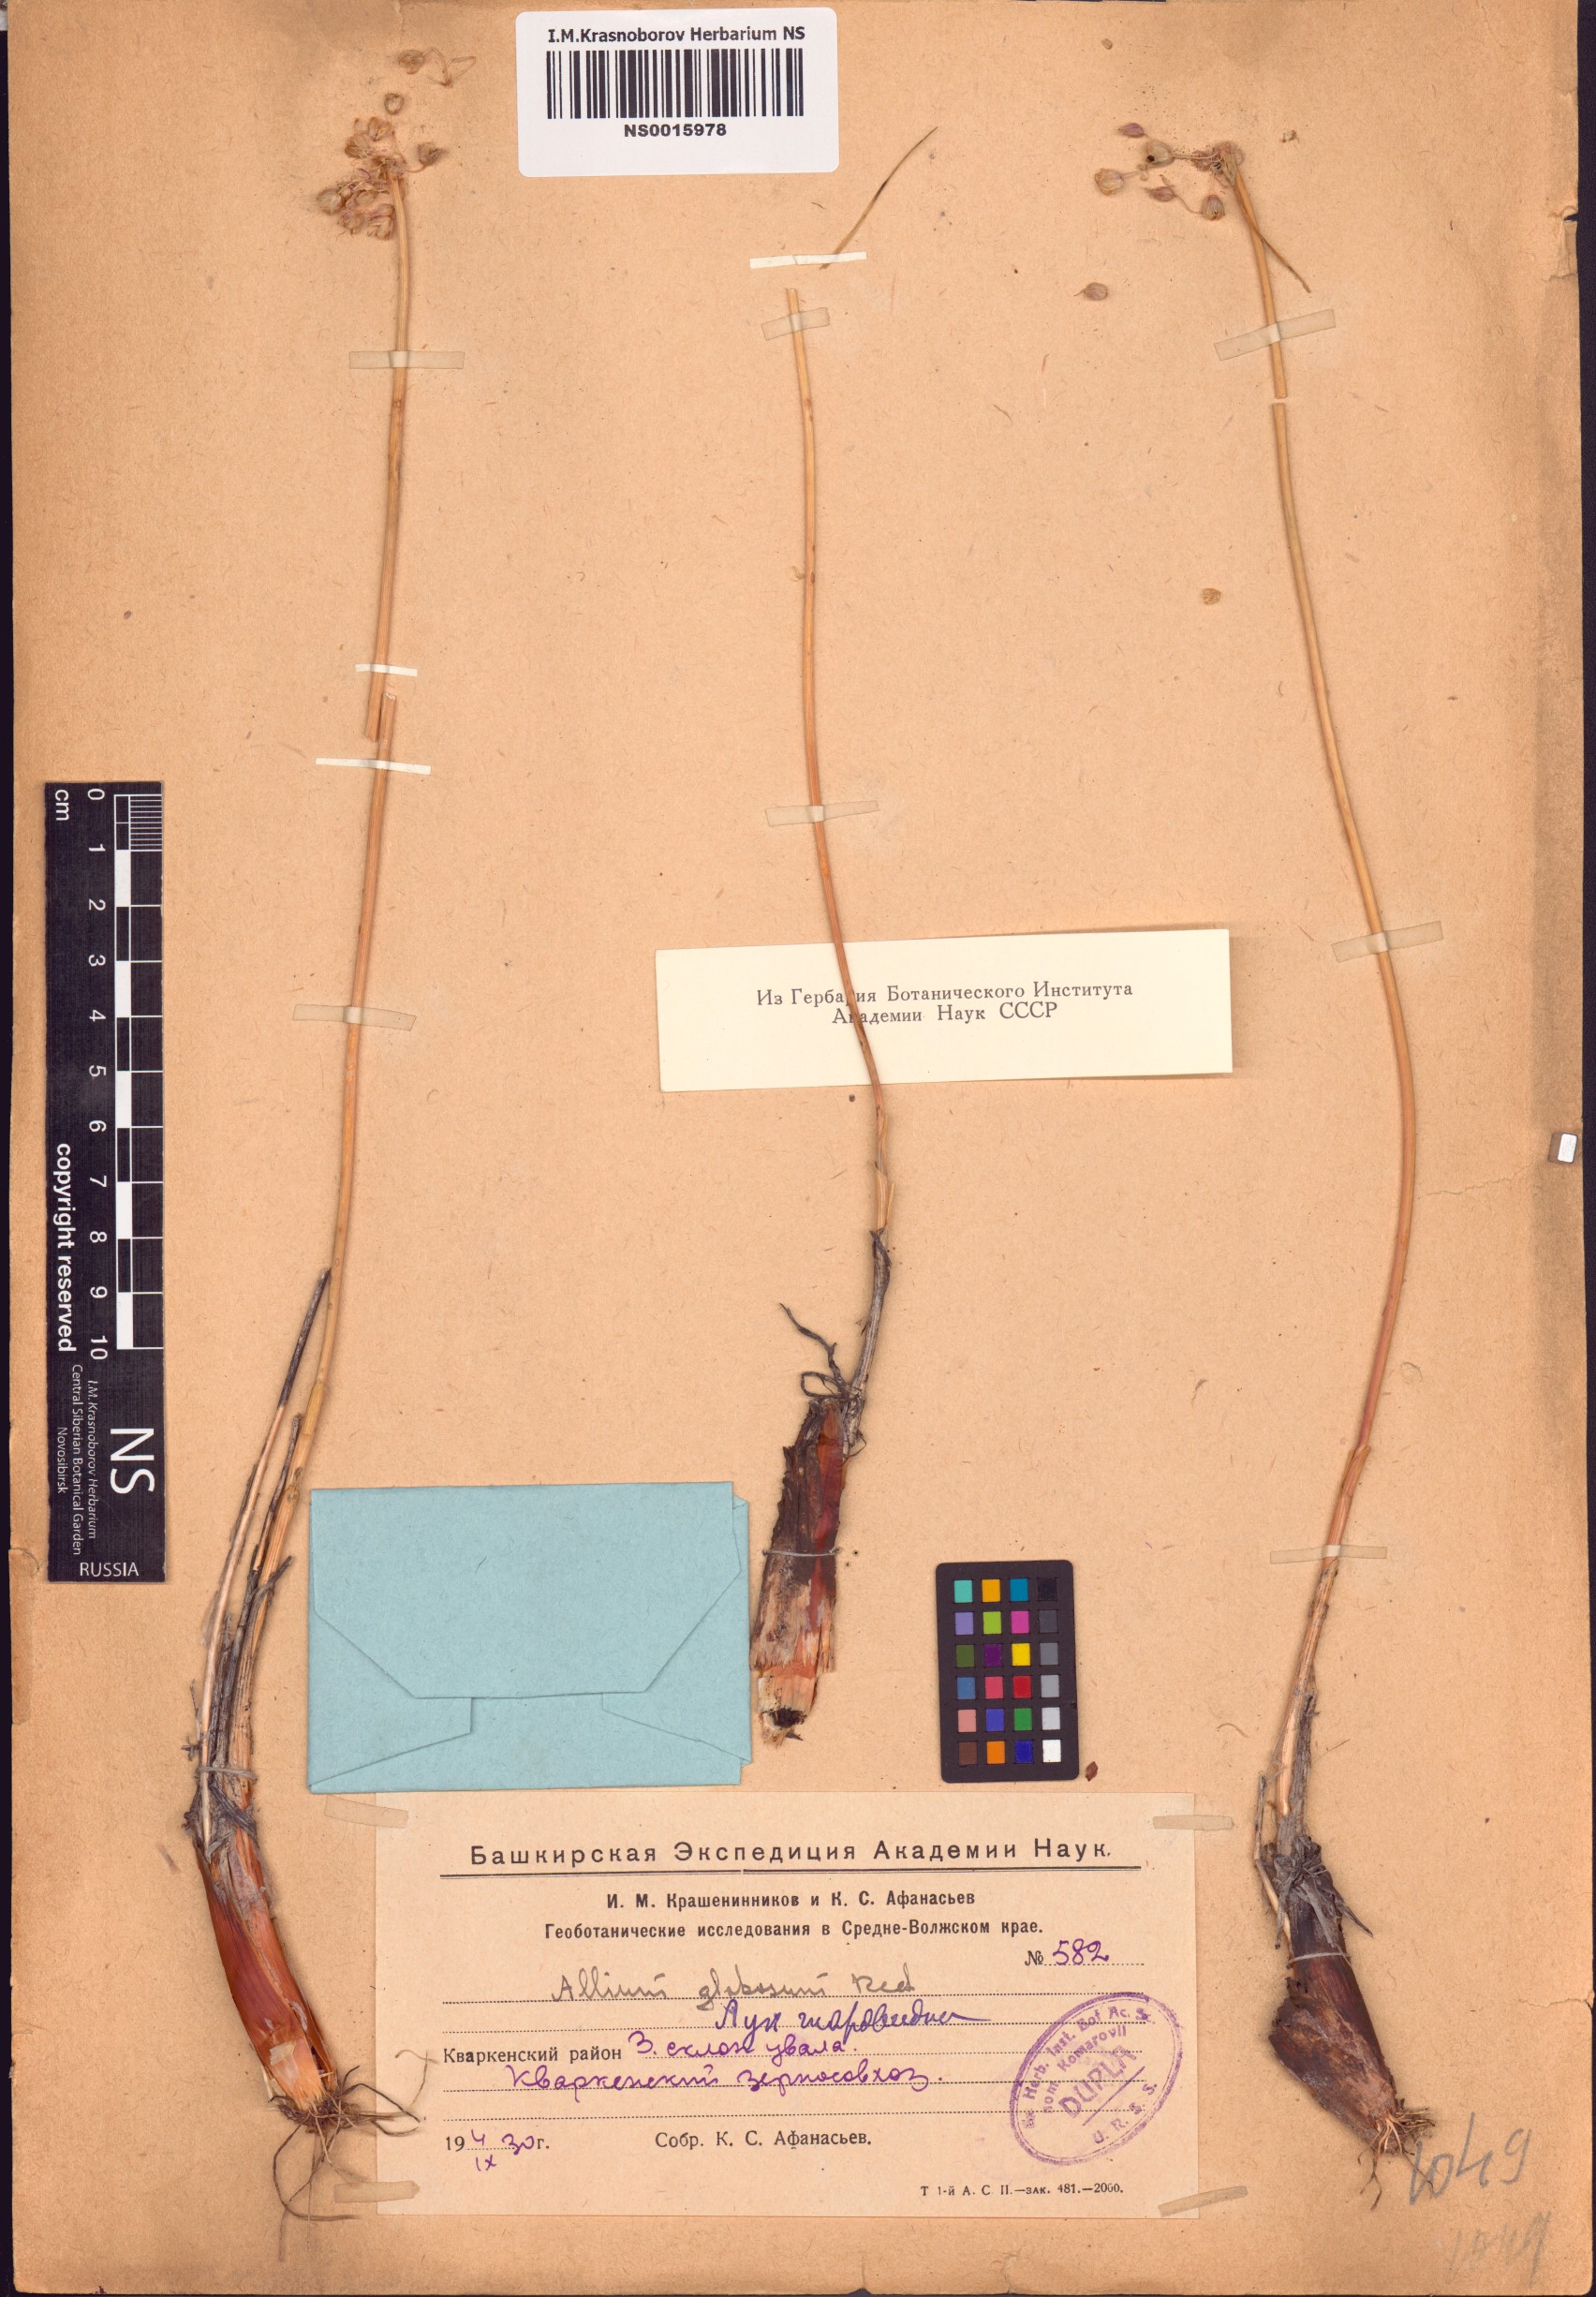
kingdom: Plantae
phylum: Tracheophyta
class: Liliopsida
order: Asparagales
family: Amaryllidaceae
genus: Allium
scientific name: Allium saxatile
